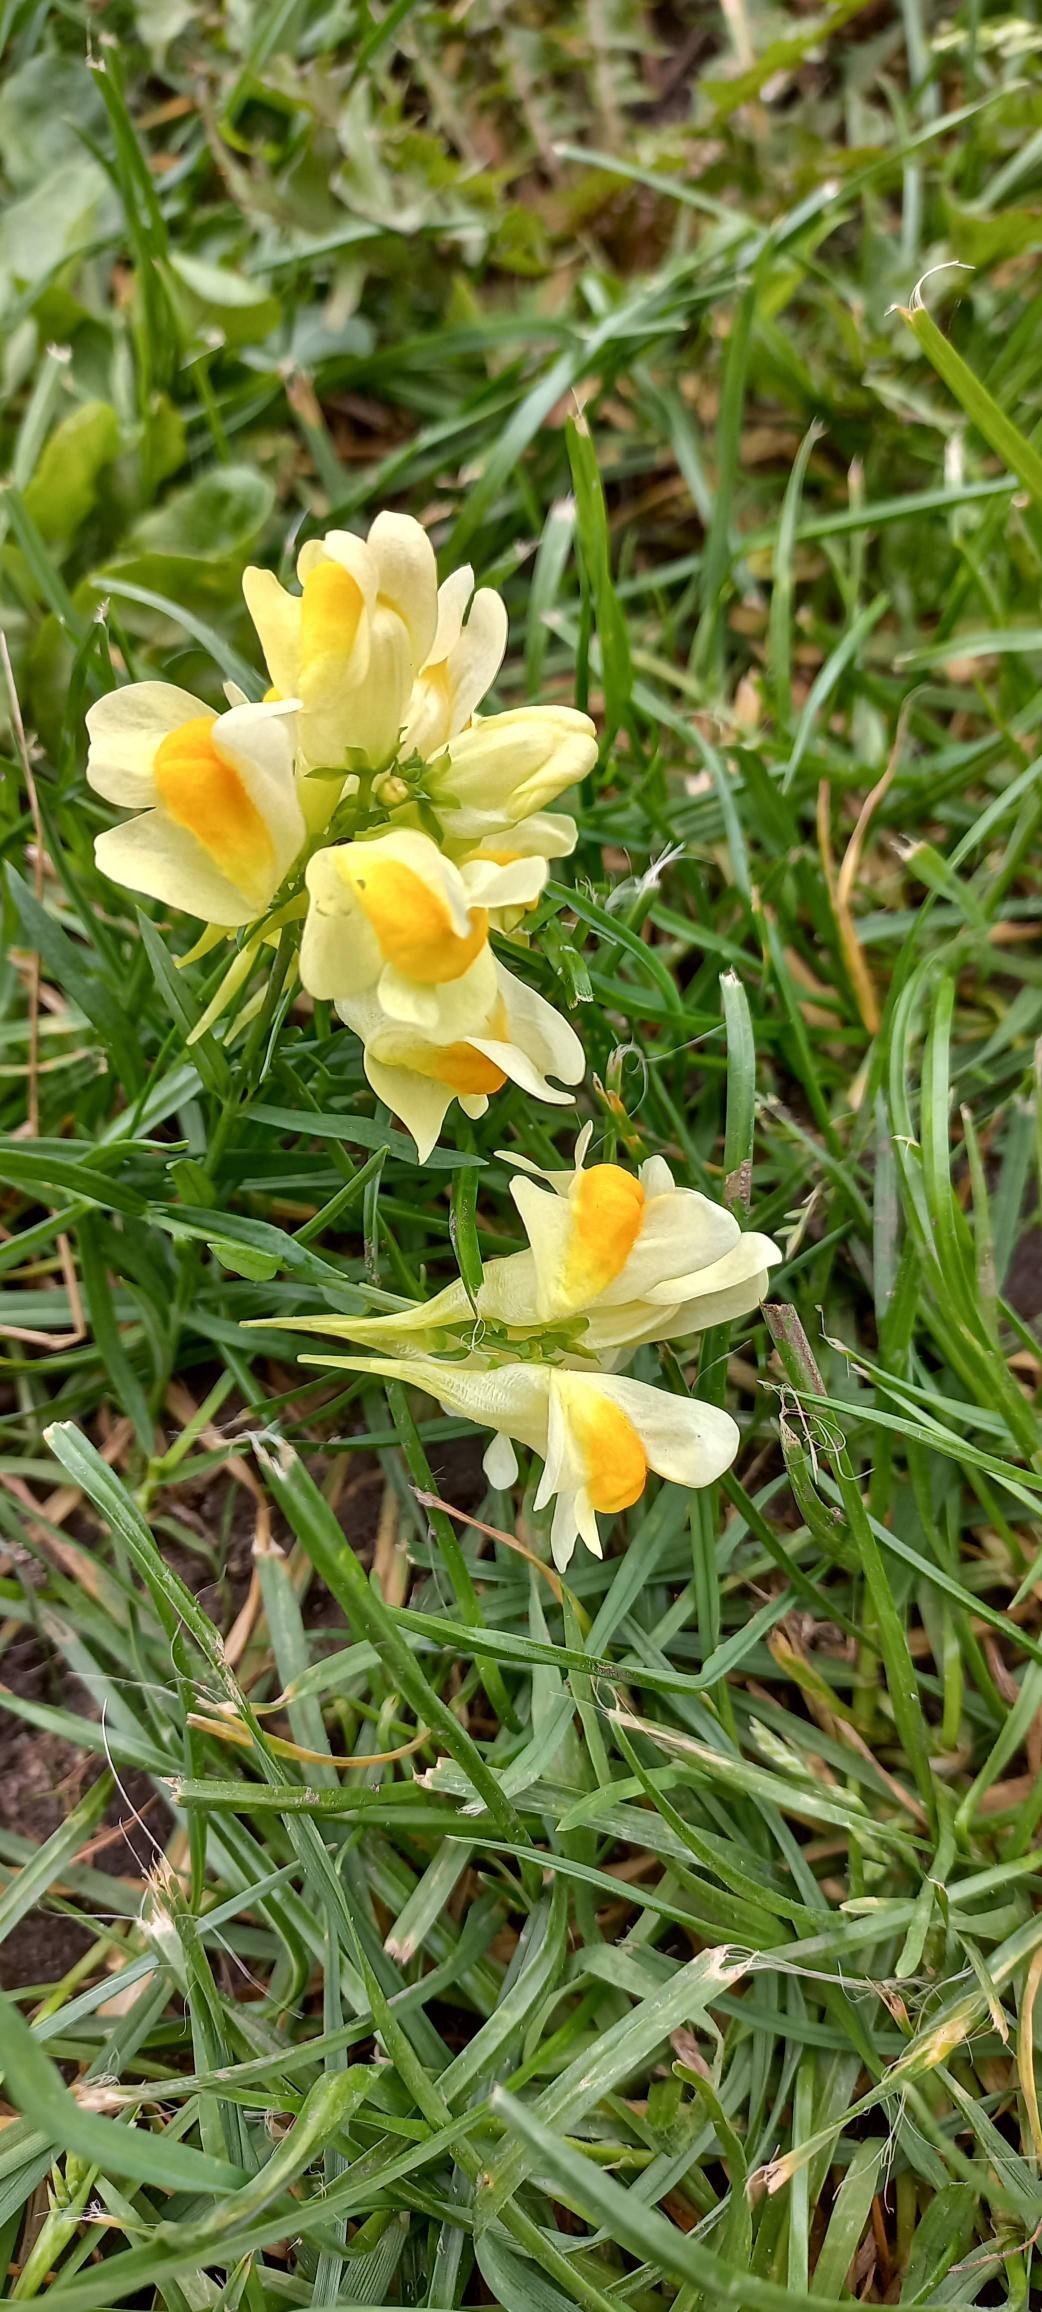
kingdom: Plantae
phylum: Tracheophyta
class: Magnoliopsida
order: Lamiales
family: Plantaginaceae
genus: Linaria
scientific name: Linaria vulgaris
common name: Almindelig torskemund
